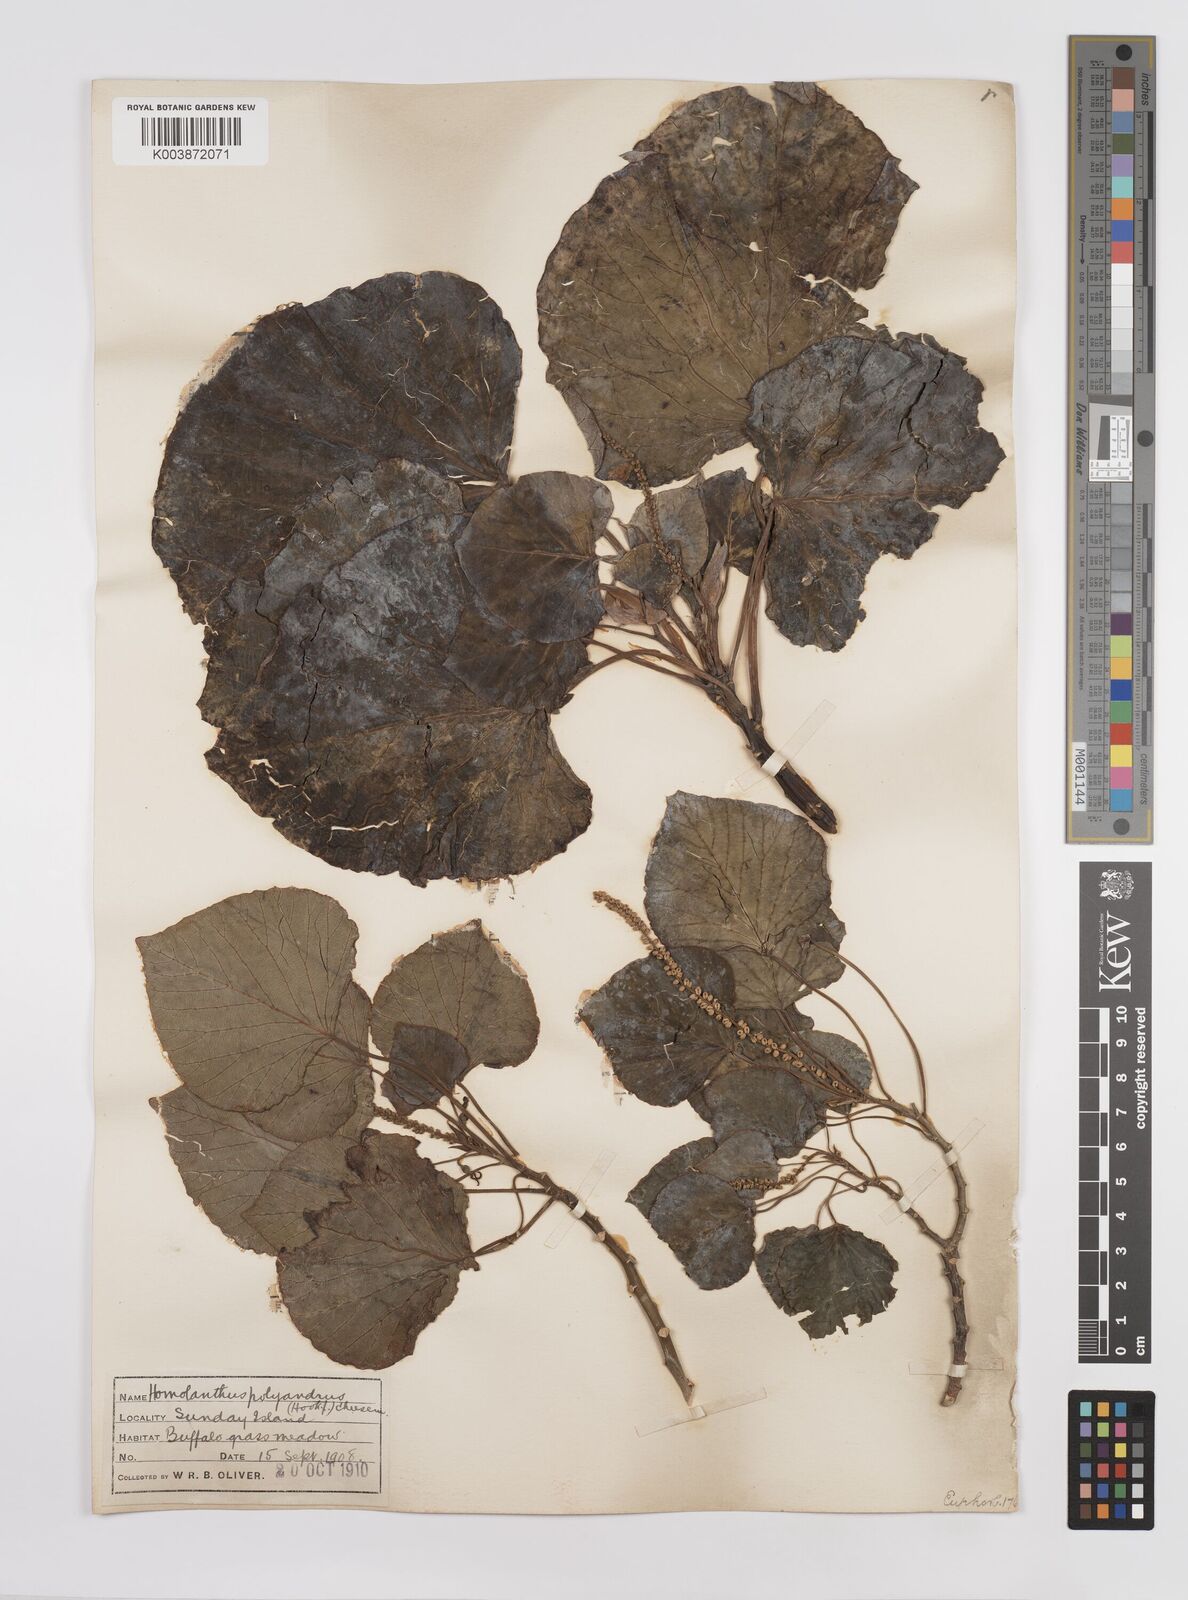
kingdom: Plantae
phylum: Tracheophyta
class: Magnoliopsida
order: Malpighiales
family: Euphorbiaceae
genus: Homalanthus
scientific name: Homalanthus polyandrus
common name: Kermadec poplar
